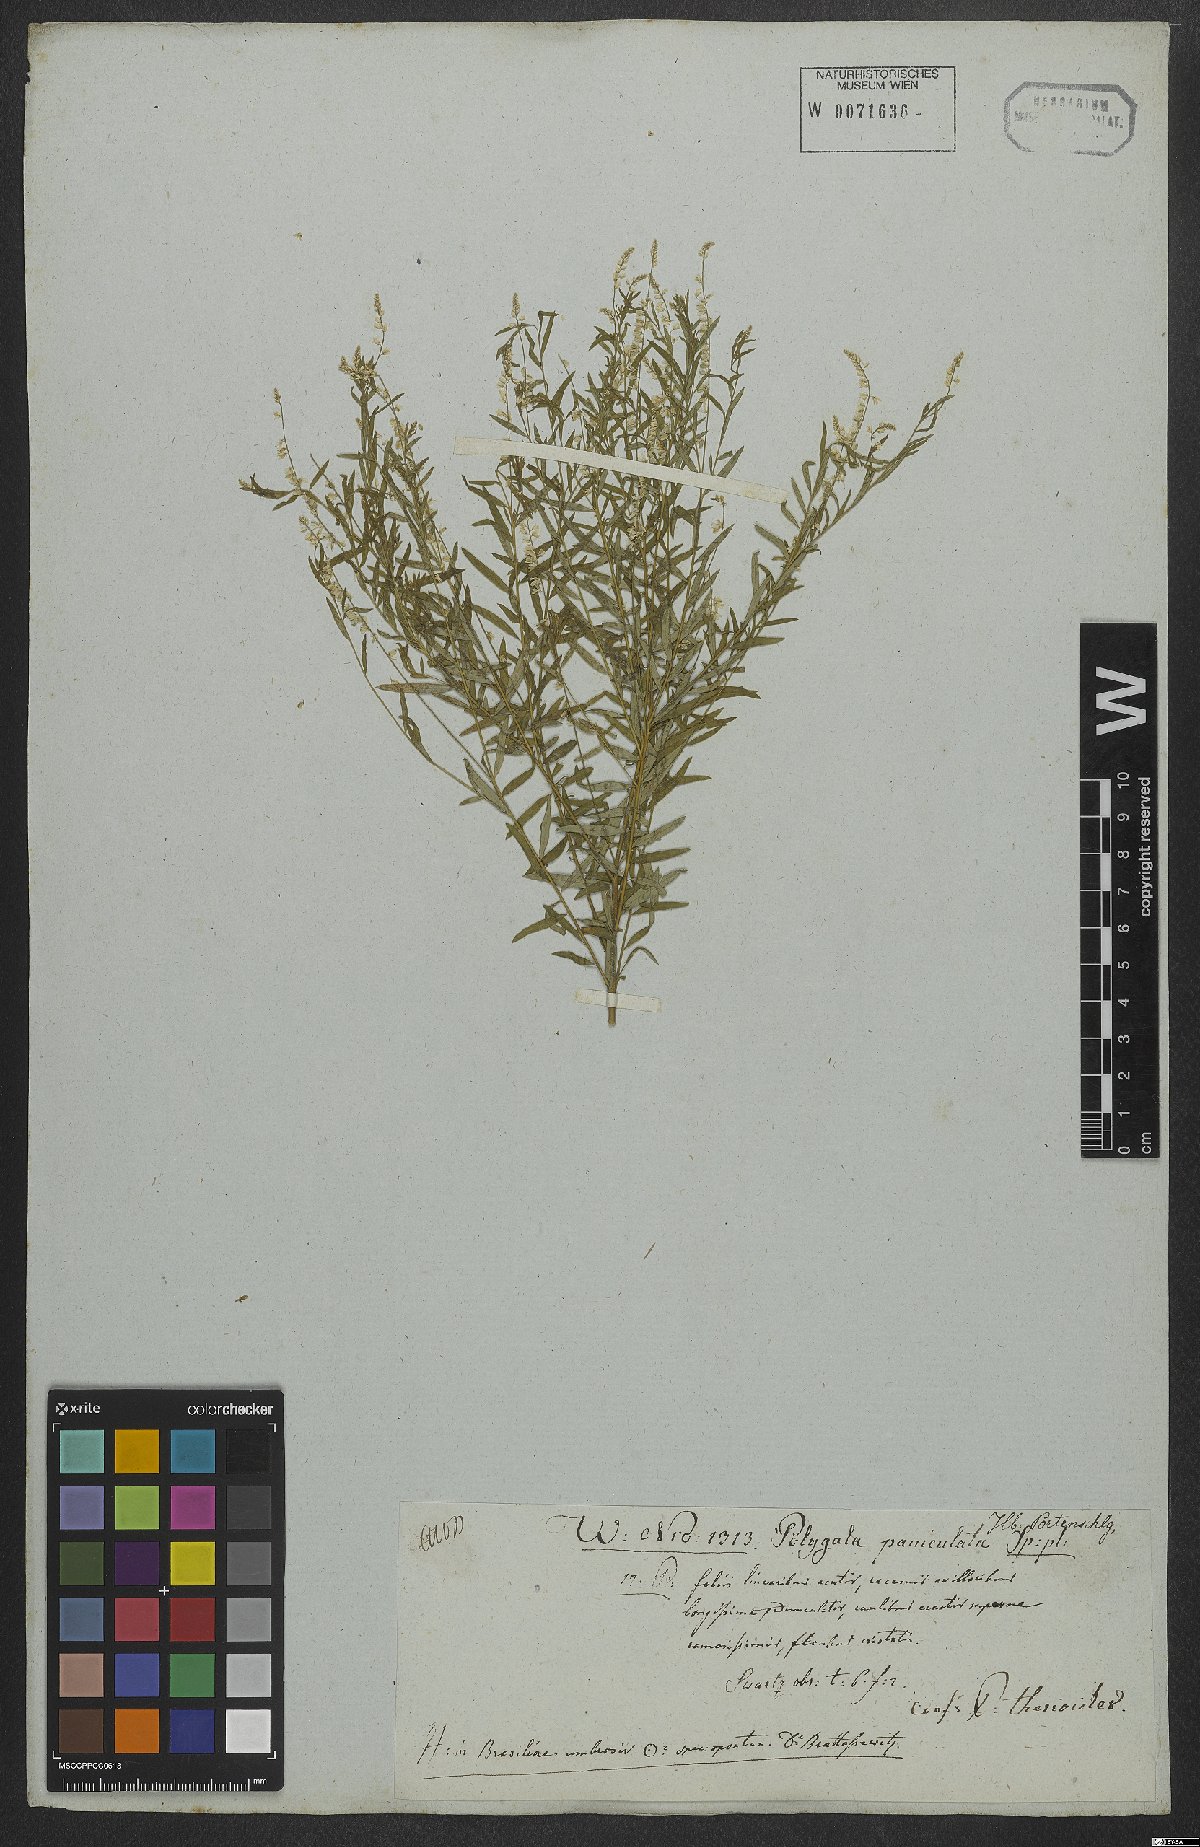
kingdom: Plantae
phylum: Tracheophyta
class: Magnoliopsida
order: Fabales
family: Polygalaceae
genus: Polygala
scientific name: Polygala exilis
